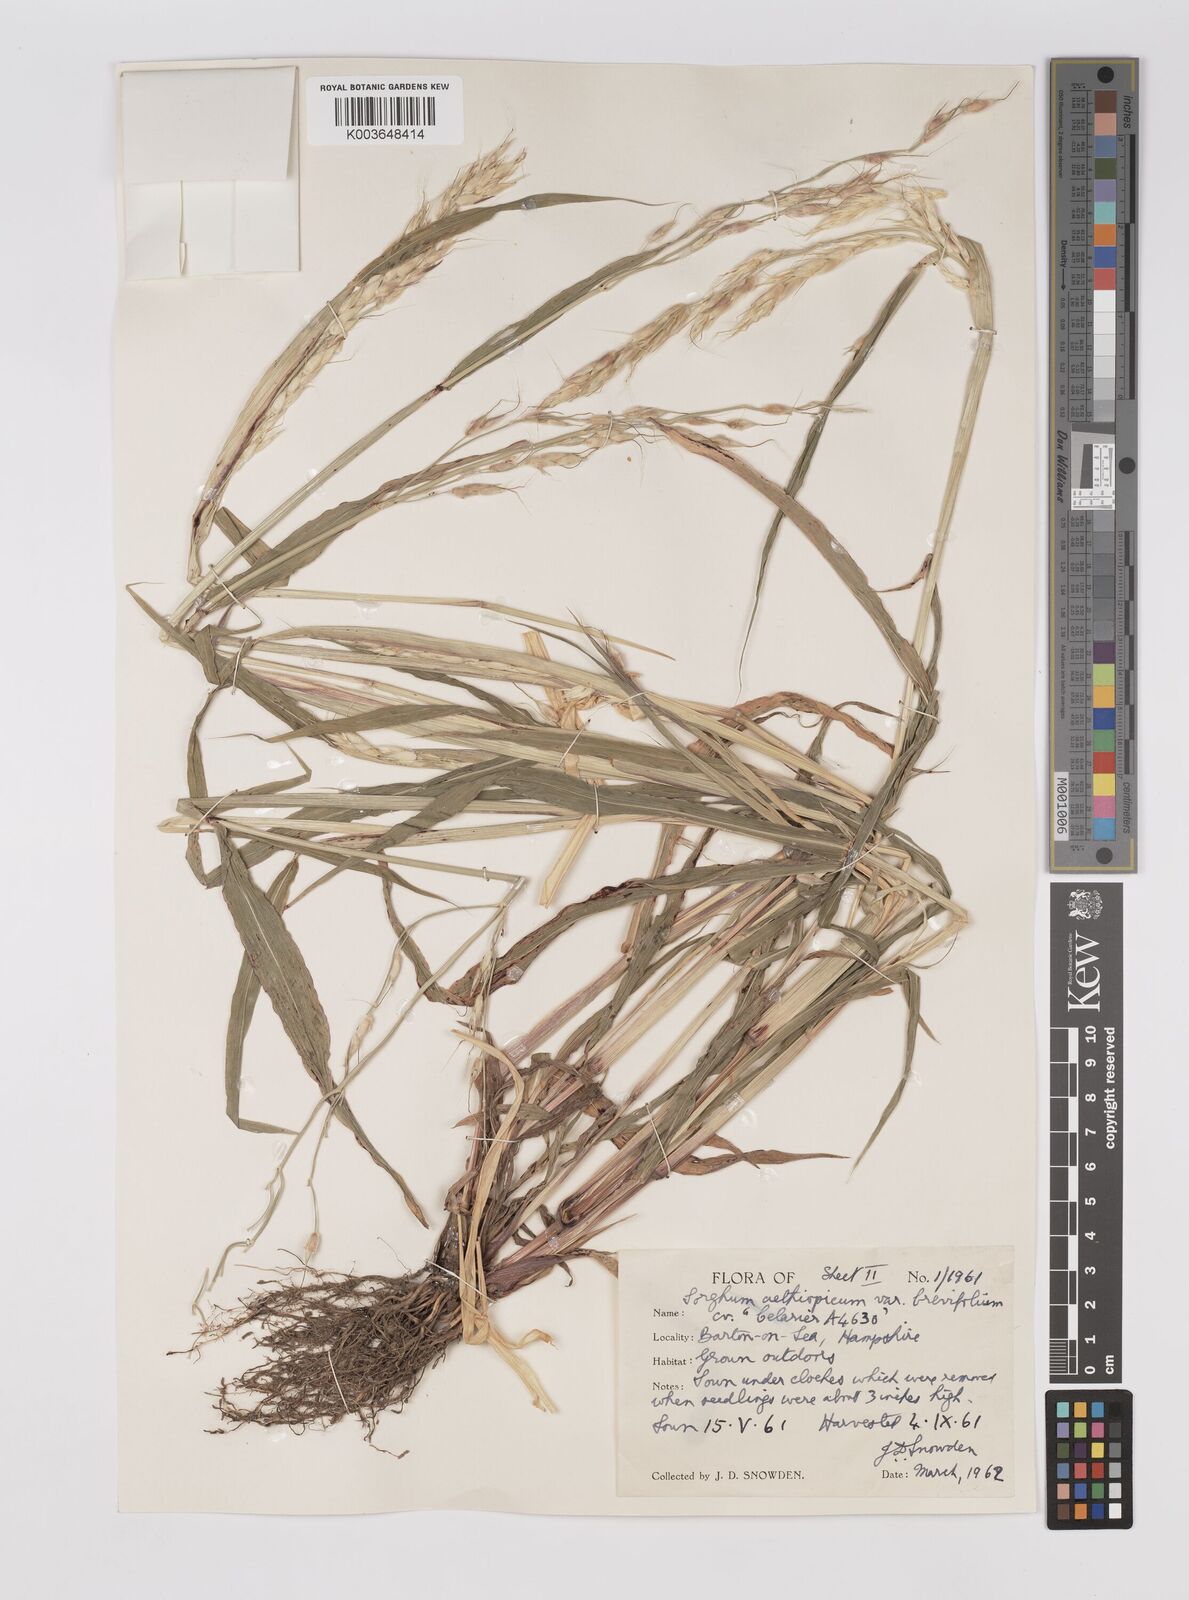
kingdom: Plantae
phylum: Tracheophyta
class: Liliopsida
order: Poales
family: Poaceae
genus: Sorghum
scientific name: Sorghum arundinaceum
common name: Sorghum
